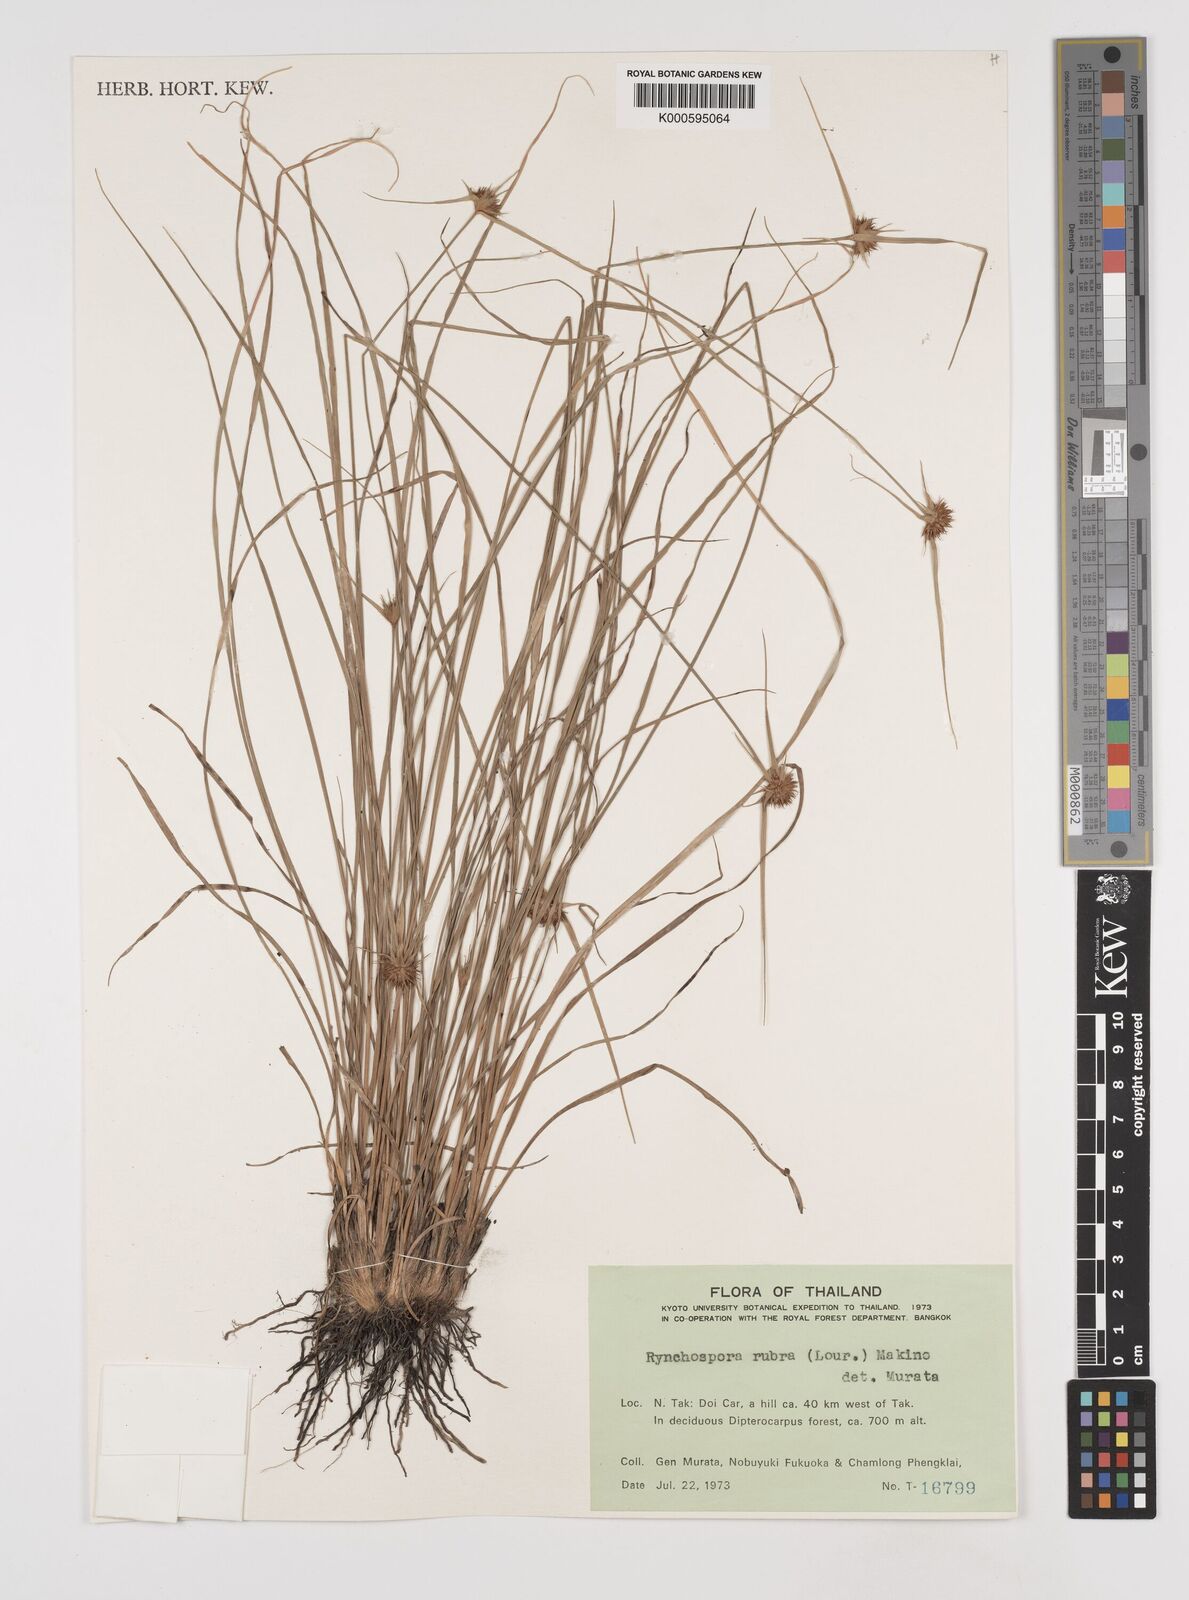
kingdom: Plantae
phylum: Tracheophyta
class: Liliopsida
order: Poales
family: Cyperaceae
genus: Rhynchospora
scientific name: Rhynchospora rubra
